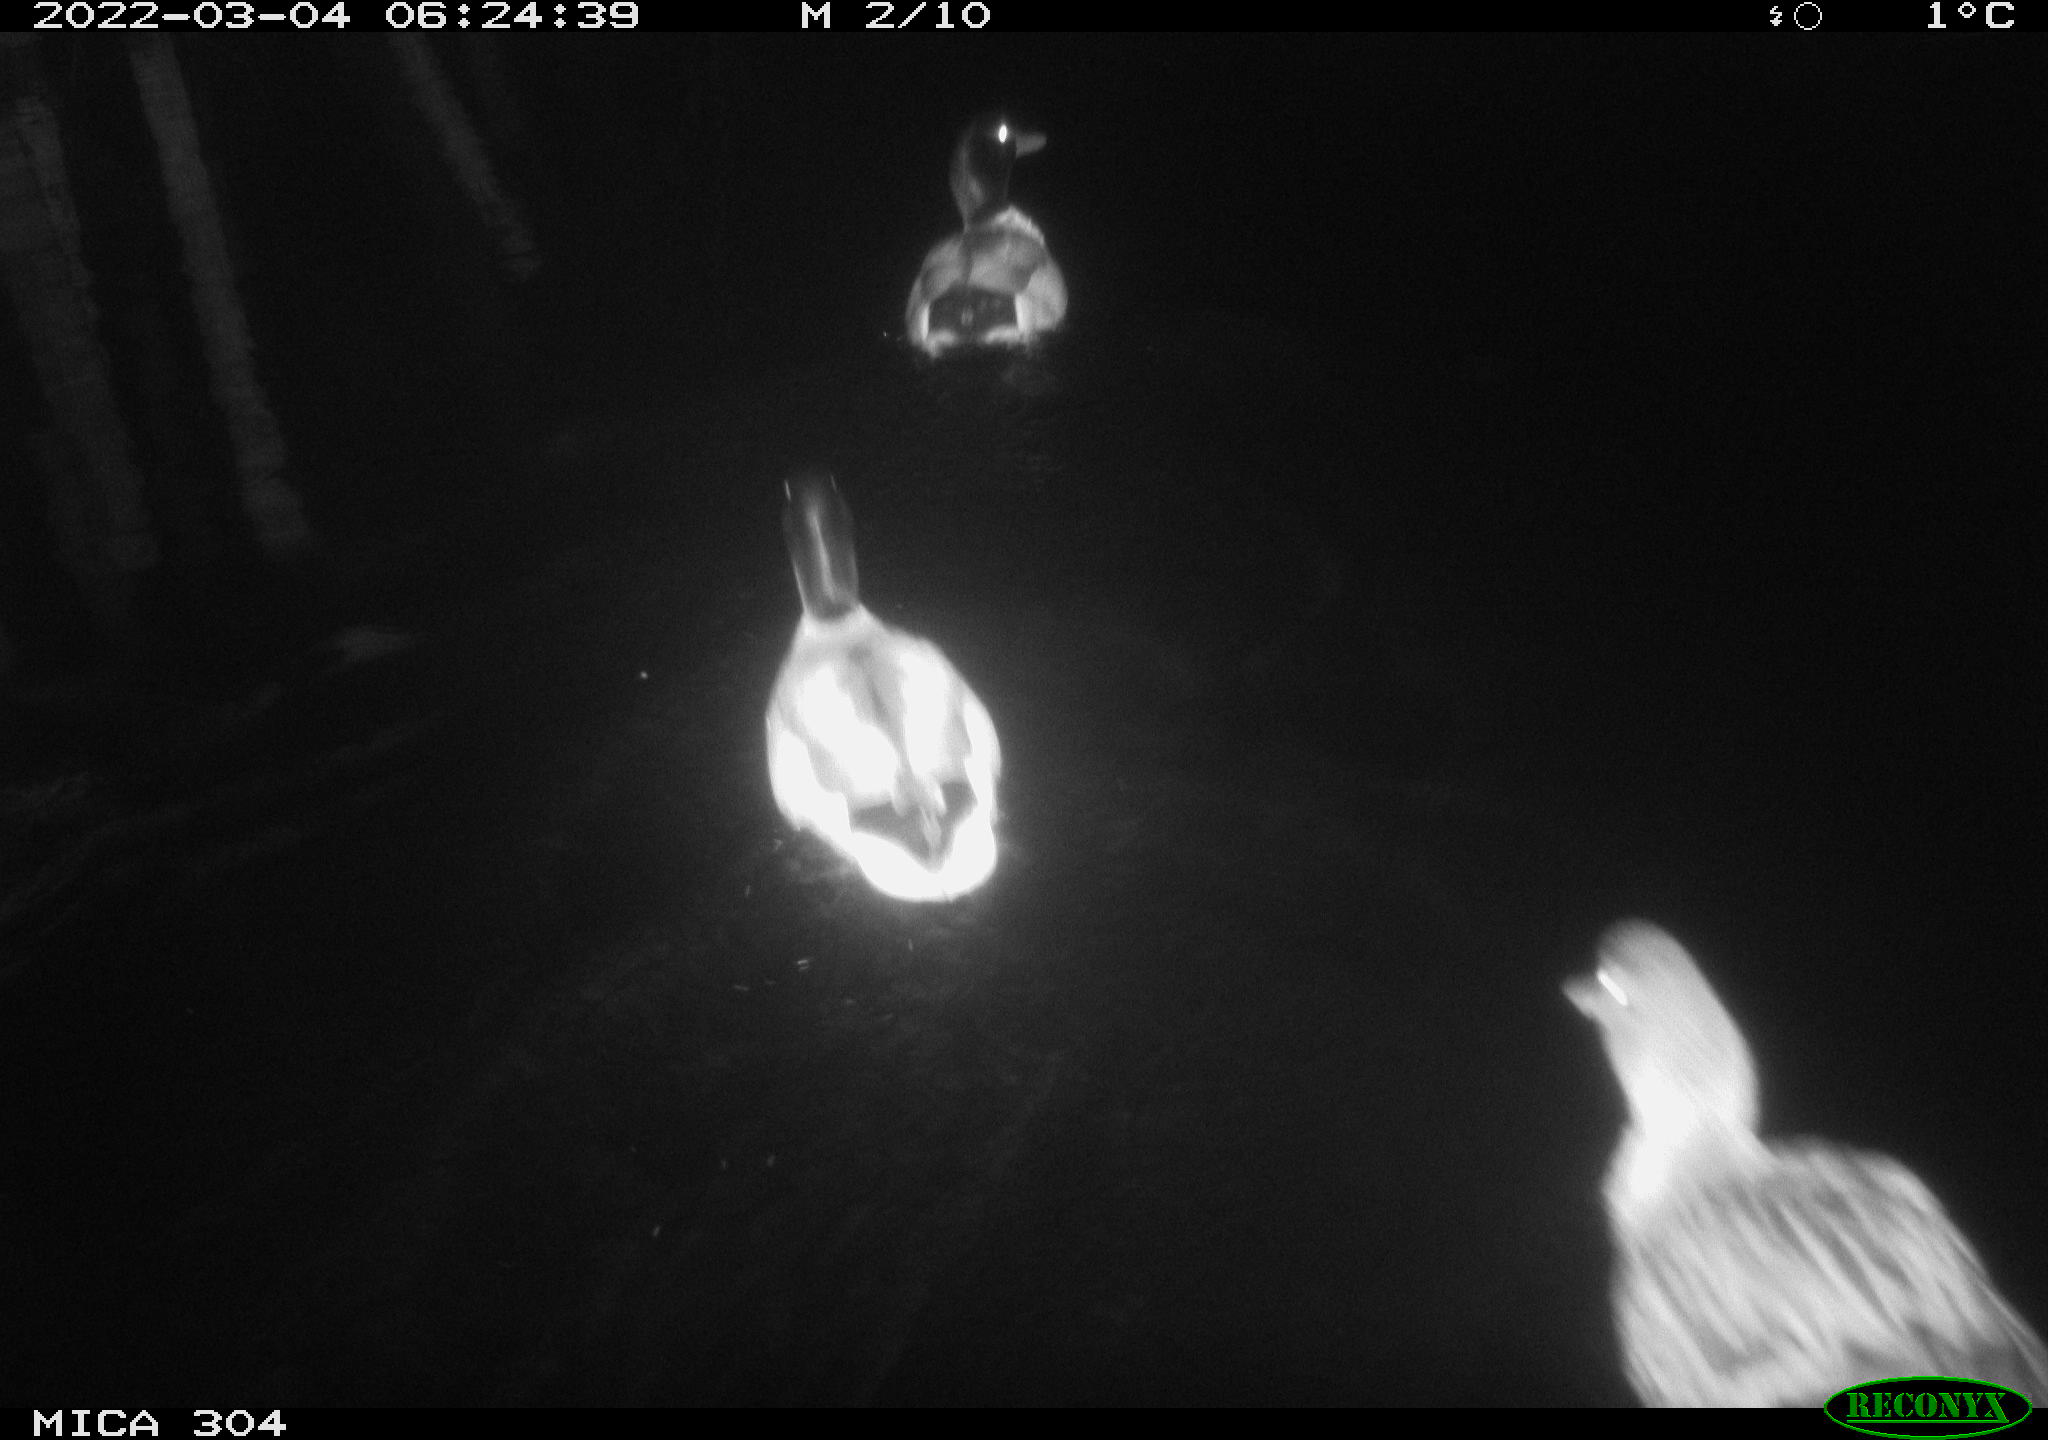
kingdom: Animalia
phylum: Chordata
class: Aves
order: Anseriformes
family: Anatidae
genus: Mareca
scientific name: Mareca strepera
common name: Gadwall
